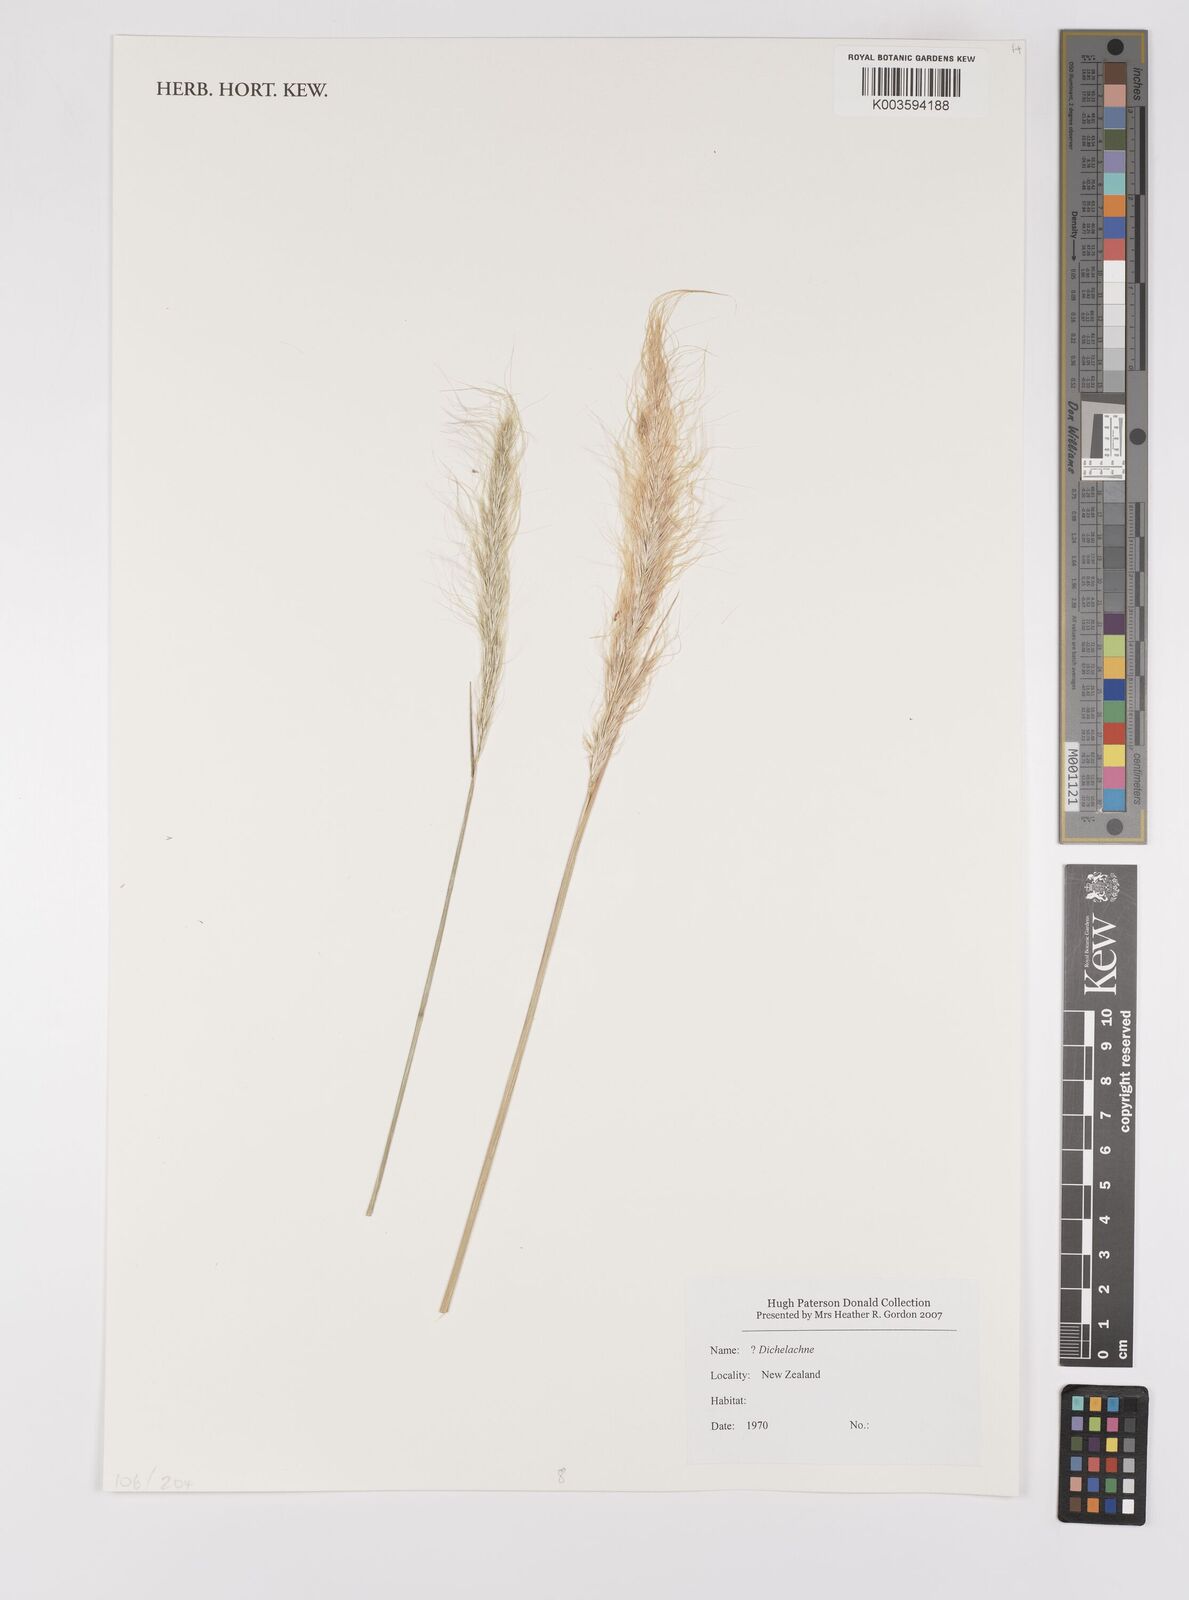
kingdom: Plantae
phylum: Tracheophyta
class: Liliopsida
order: Poales
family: Poaceae
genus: Dichelachne
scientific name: Dichelachne
